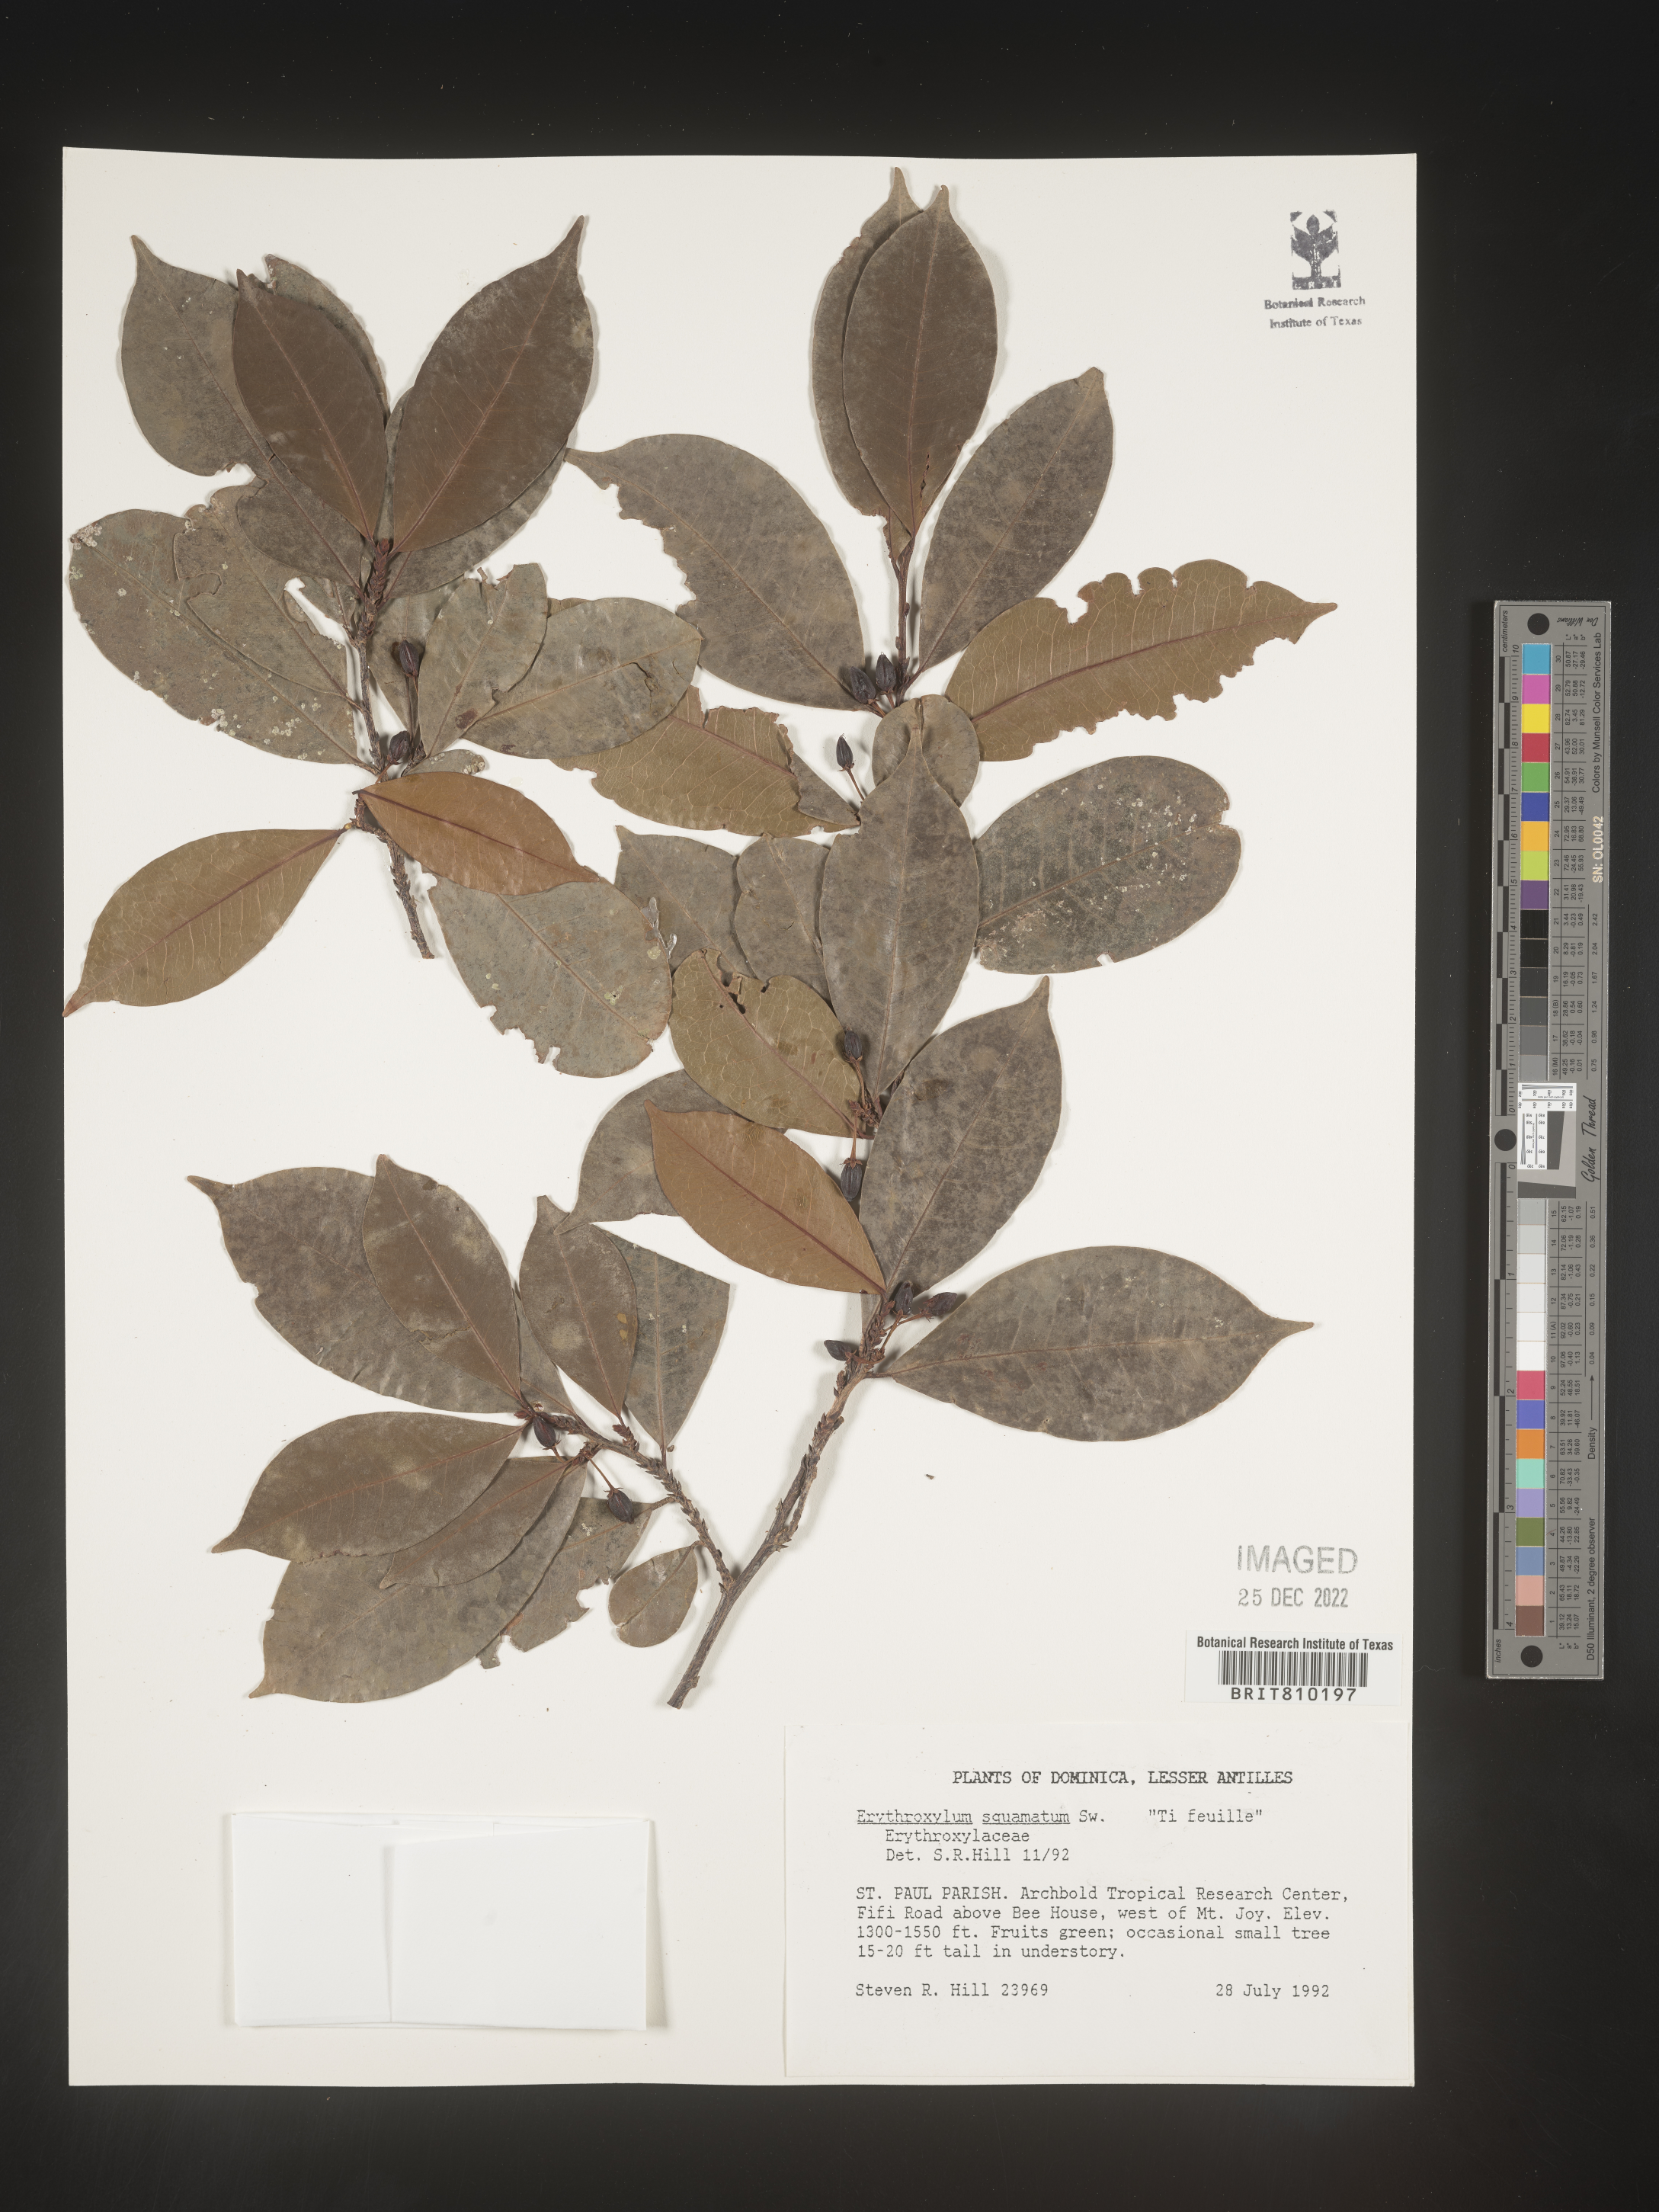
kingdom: Plantae
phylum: Tracheophyta
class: Magnoliopsida
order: Malpighiales
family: Erythroxylaceae
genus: Erythroxylum
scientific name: Erythroxylum
